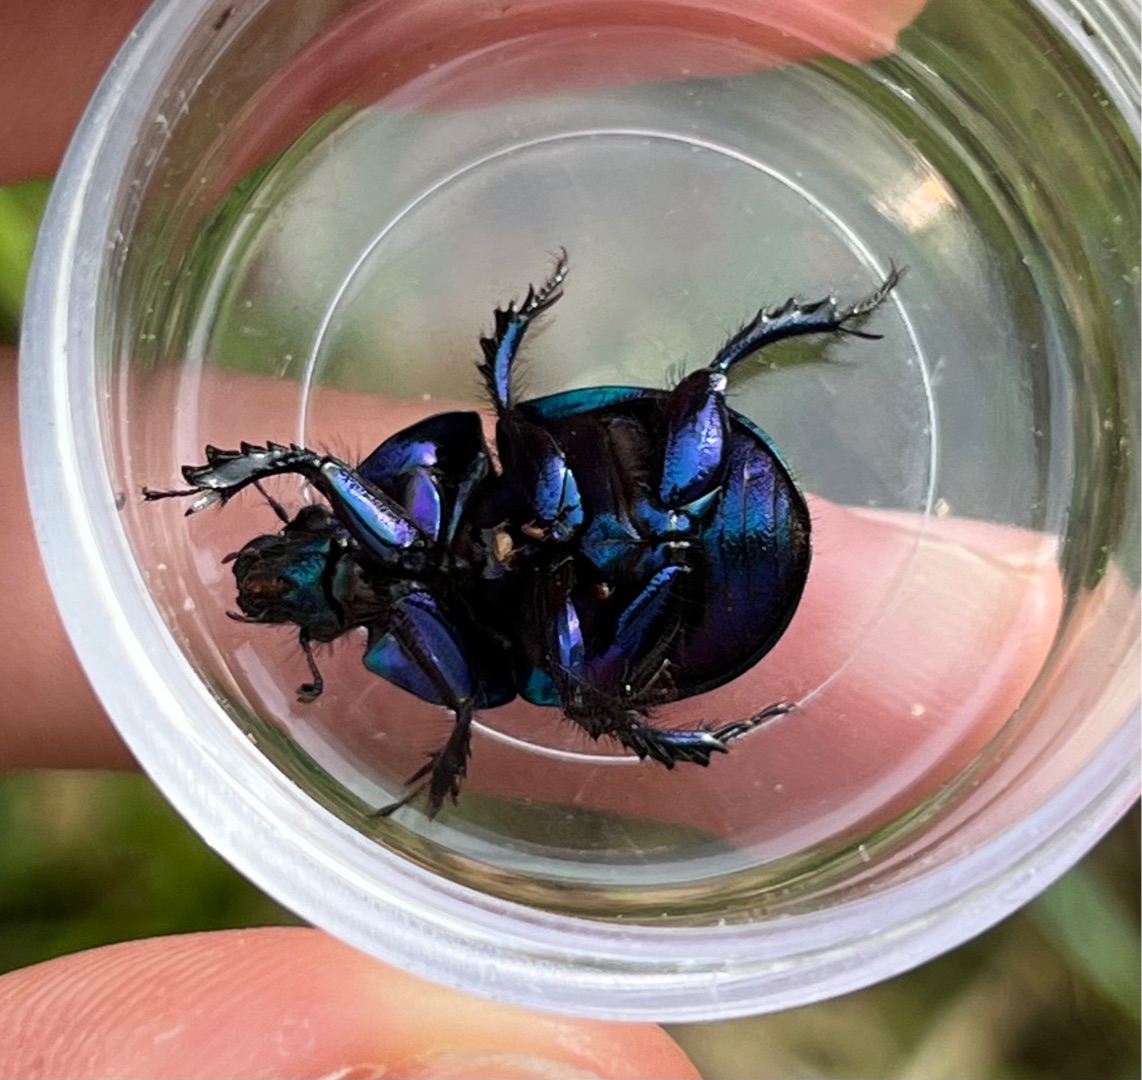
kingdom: Animalia
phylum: Arthropoda
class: Insecta
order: Coleoptera
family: Geotrupidae
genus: Anoplotrupes
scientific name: Anoplotrupes stercorosus
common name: Skovskarnbasse
